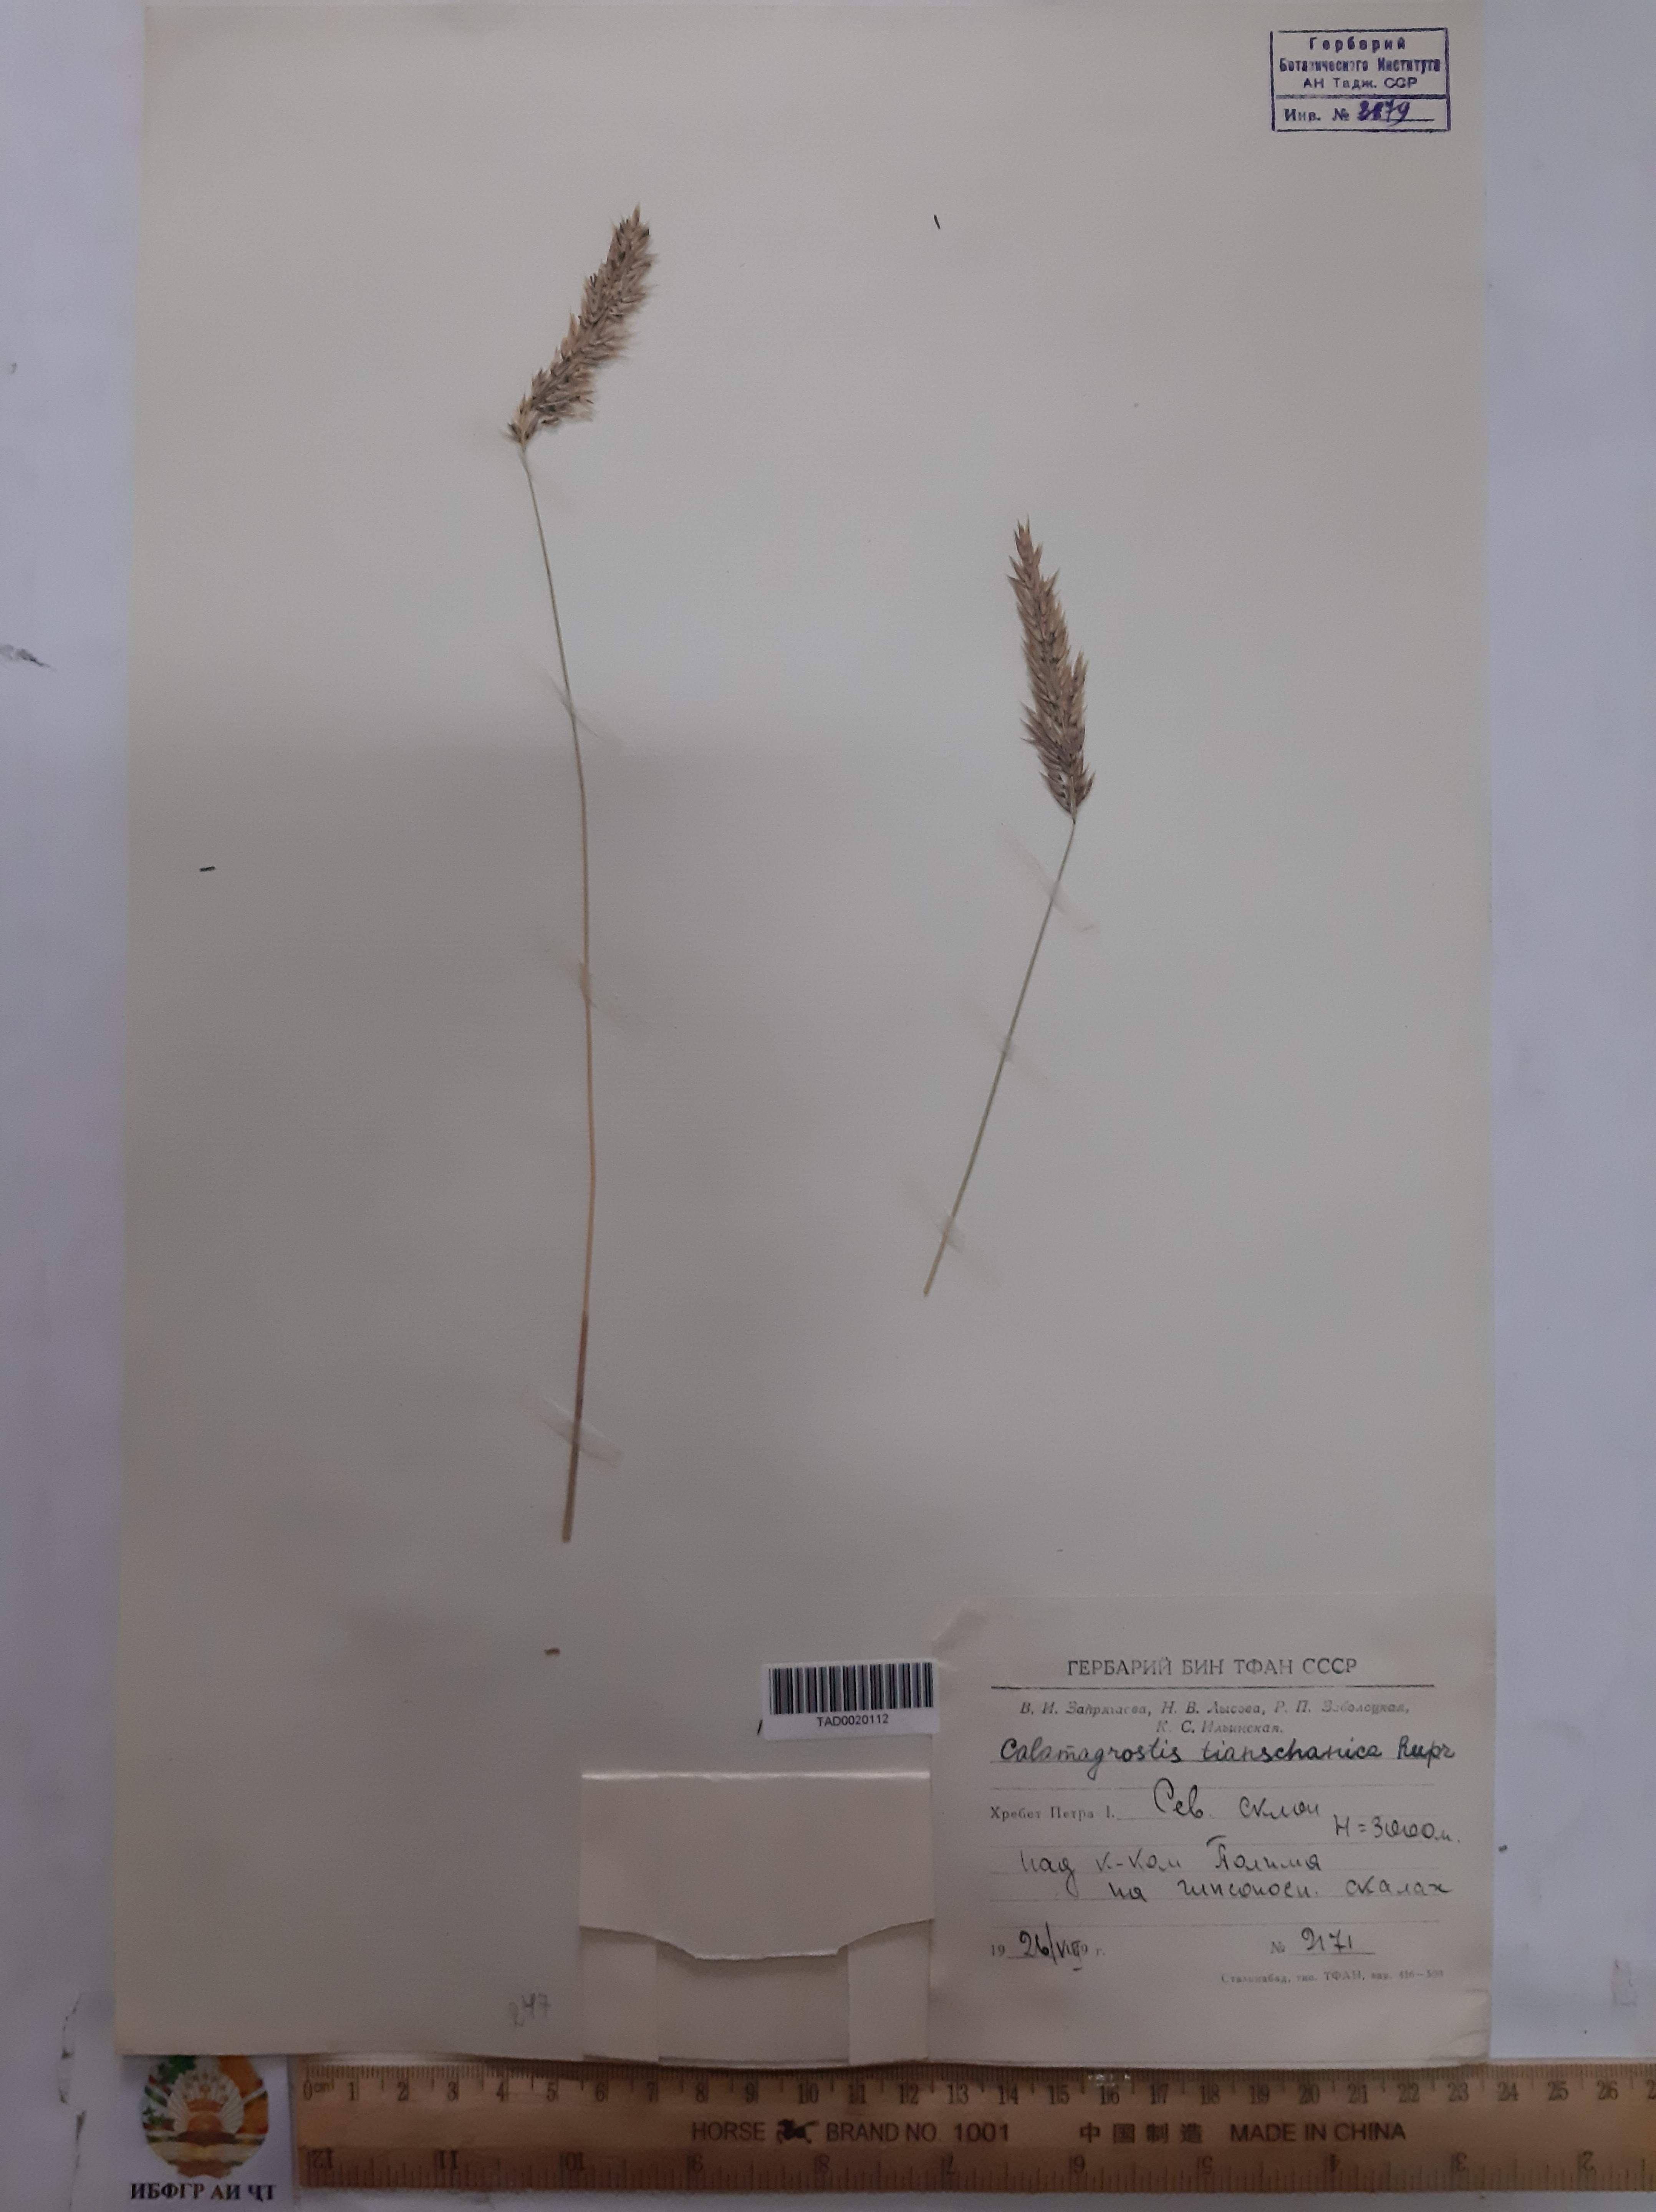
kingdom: Plantae
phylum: Tracheophyta
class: Liliopsida
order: Poales
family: Poaceae
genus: Calamagrostis
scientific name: Calamagrostis tianschanica
